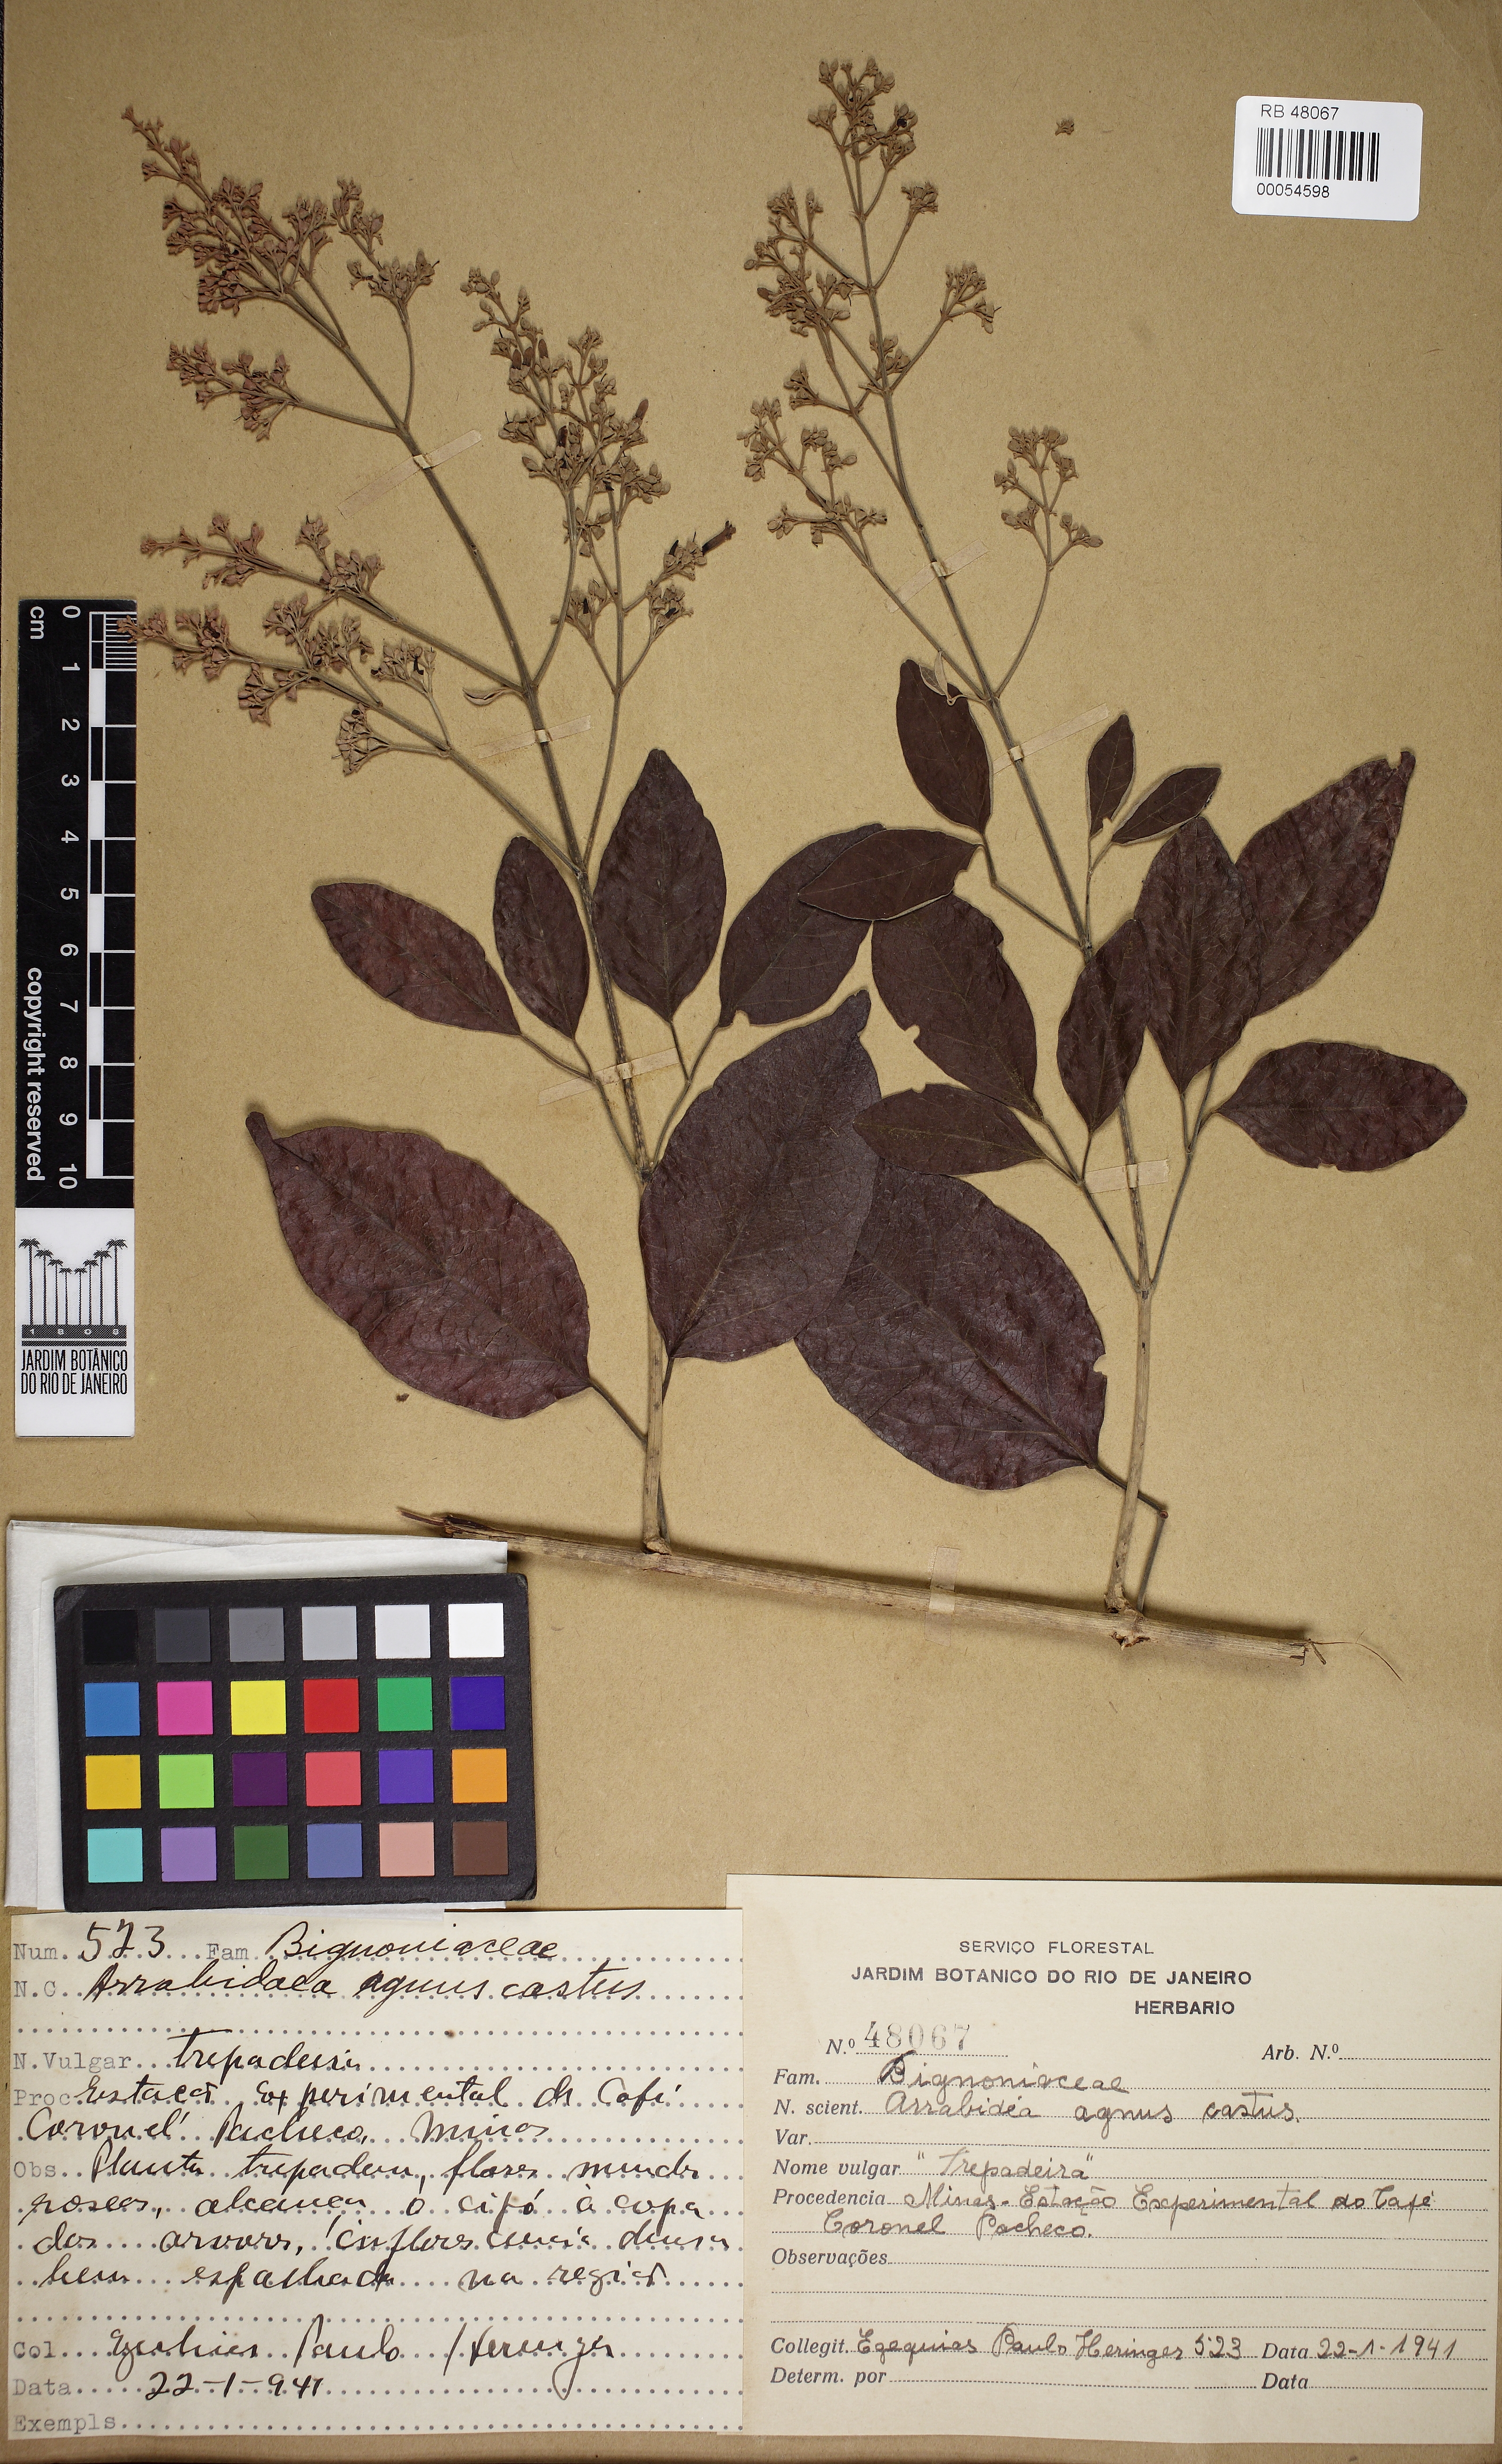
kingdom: Plantae
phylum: Tracheophyta
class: Magnoliopsida
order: Lamiales
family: Bignoniaceae
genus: Fridericia
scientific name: Fridericia rego
